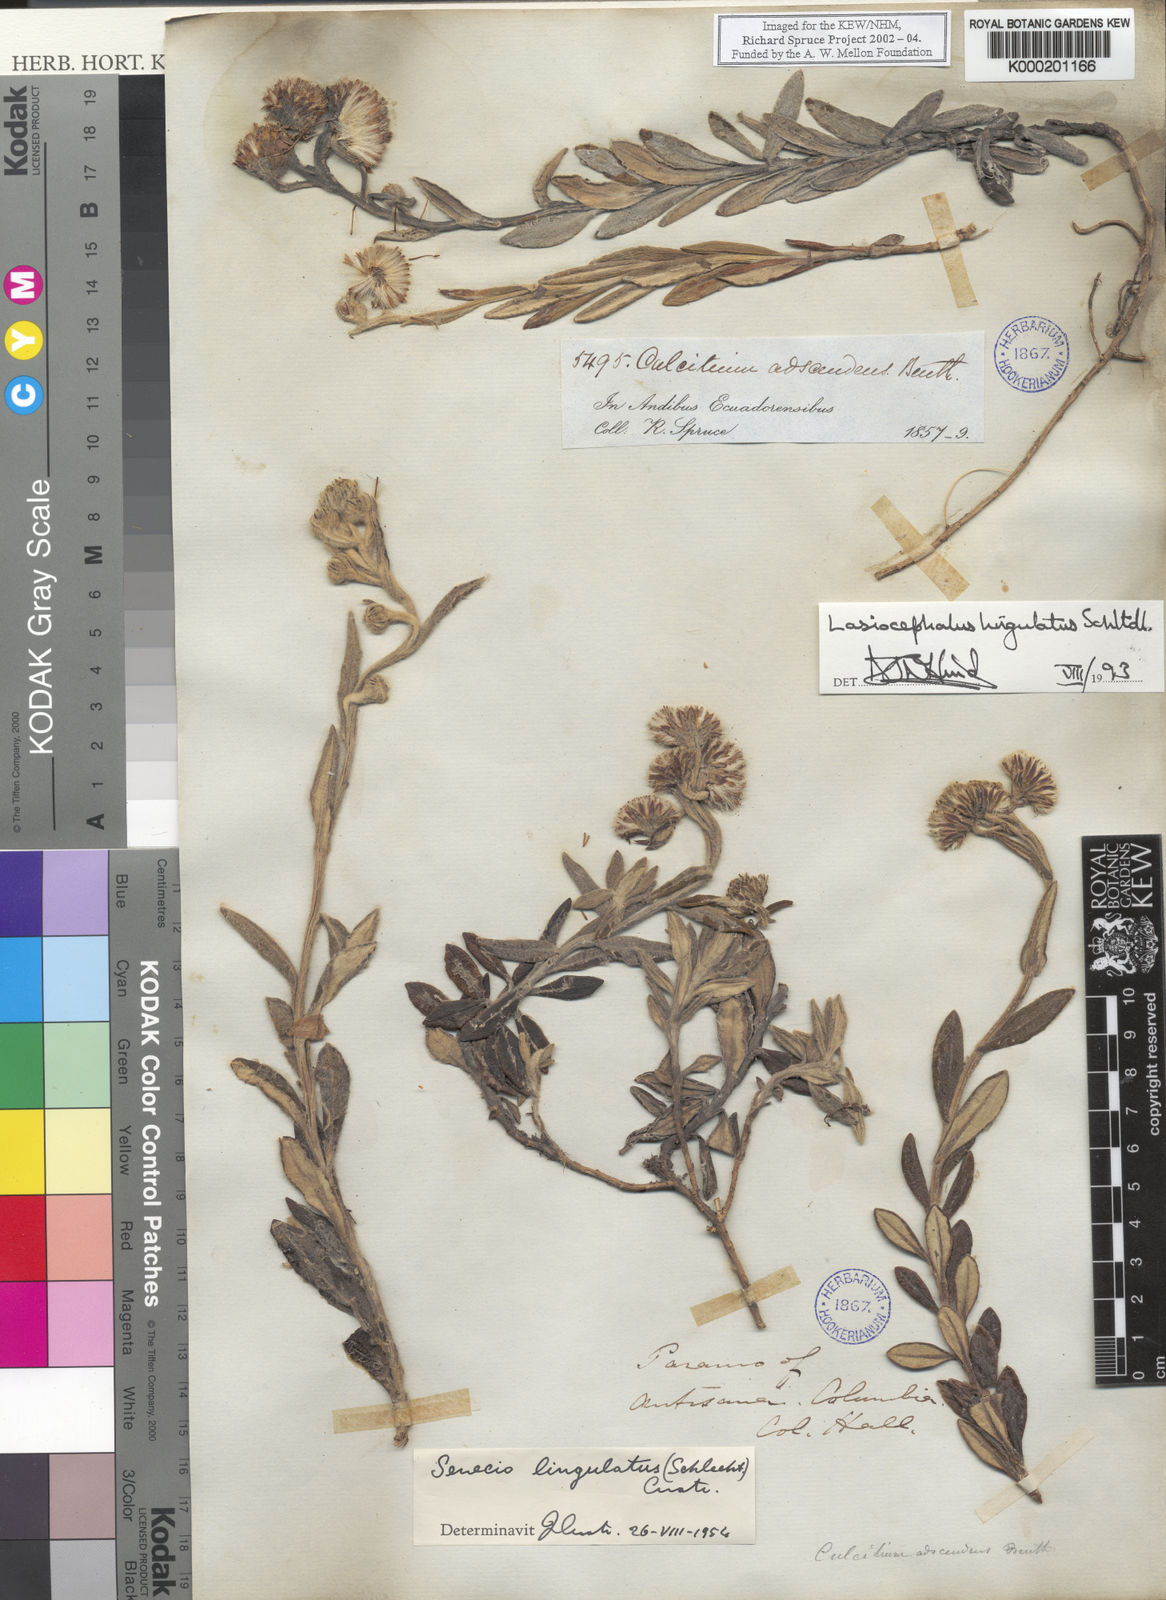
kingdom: Plantae
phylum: Tracheophyta
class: Magnoliopsida
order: Asterales
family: Asteraceae
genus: Lasiocephalus
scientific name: Lasiocephalus lingulatus
